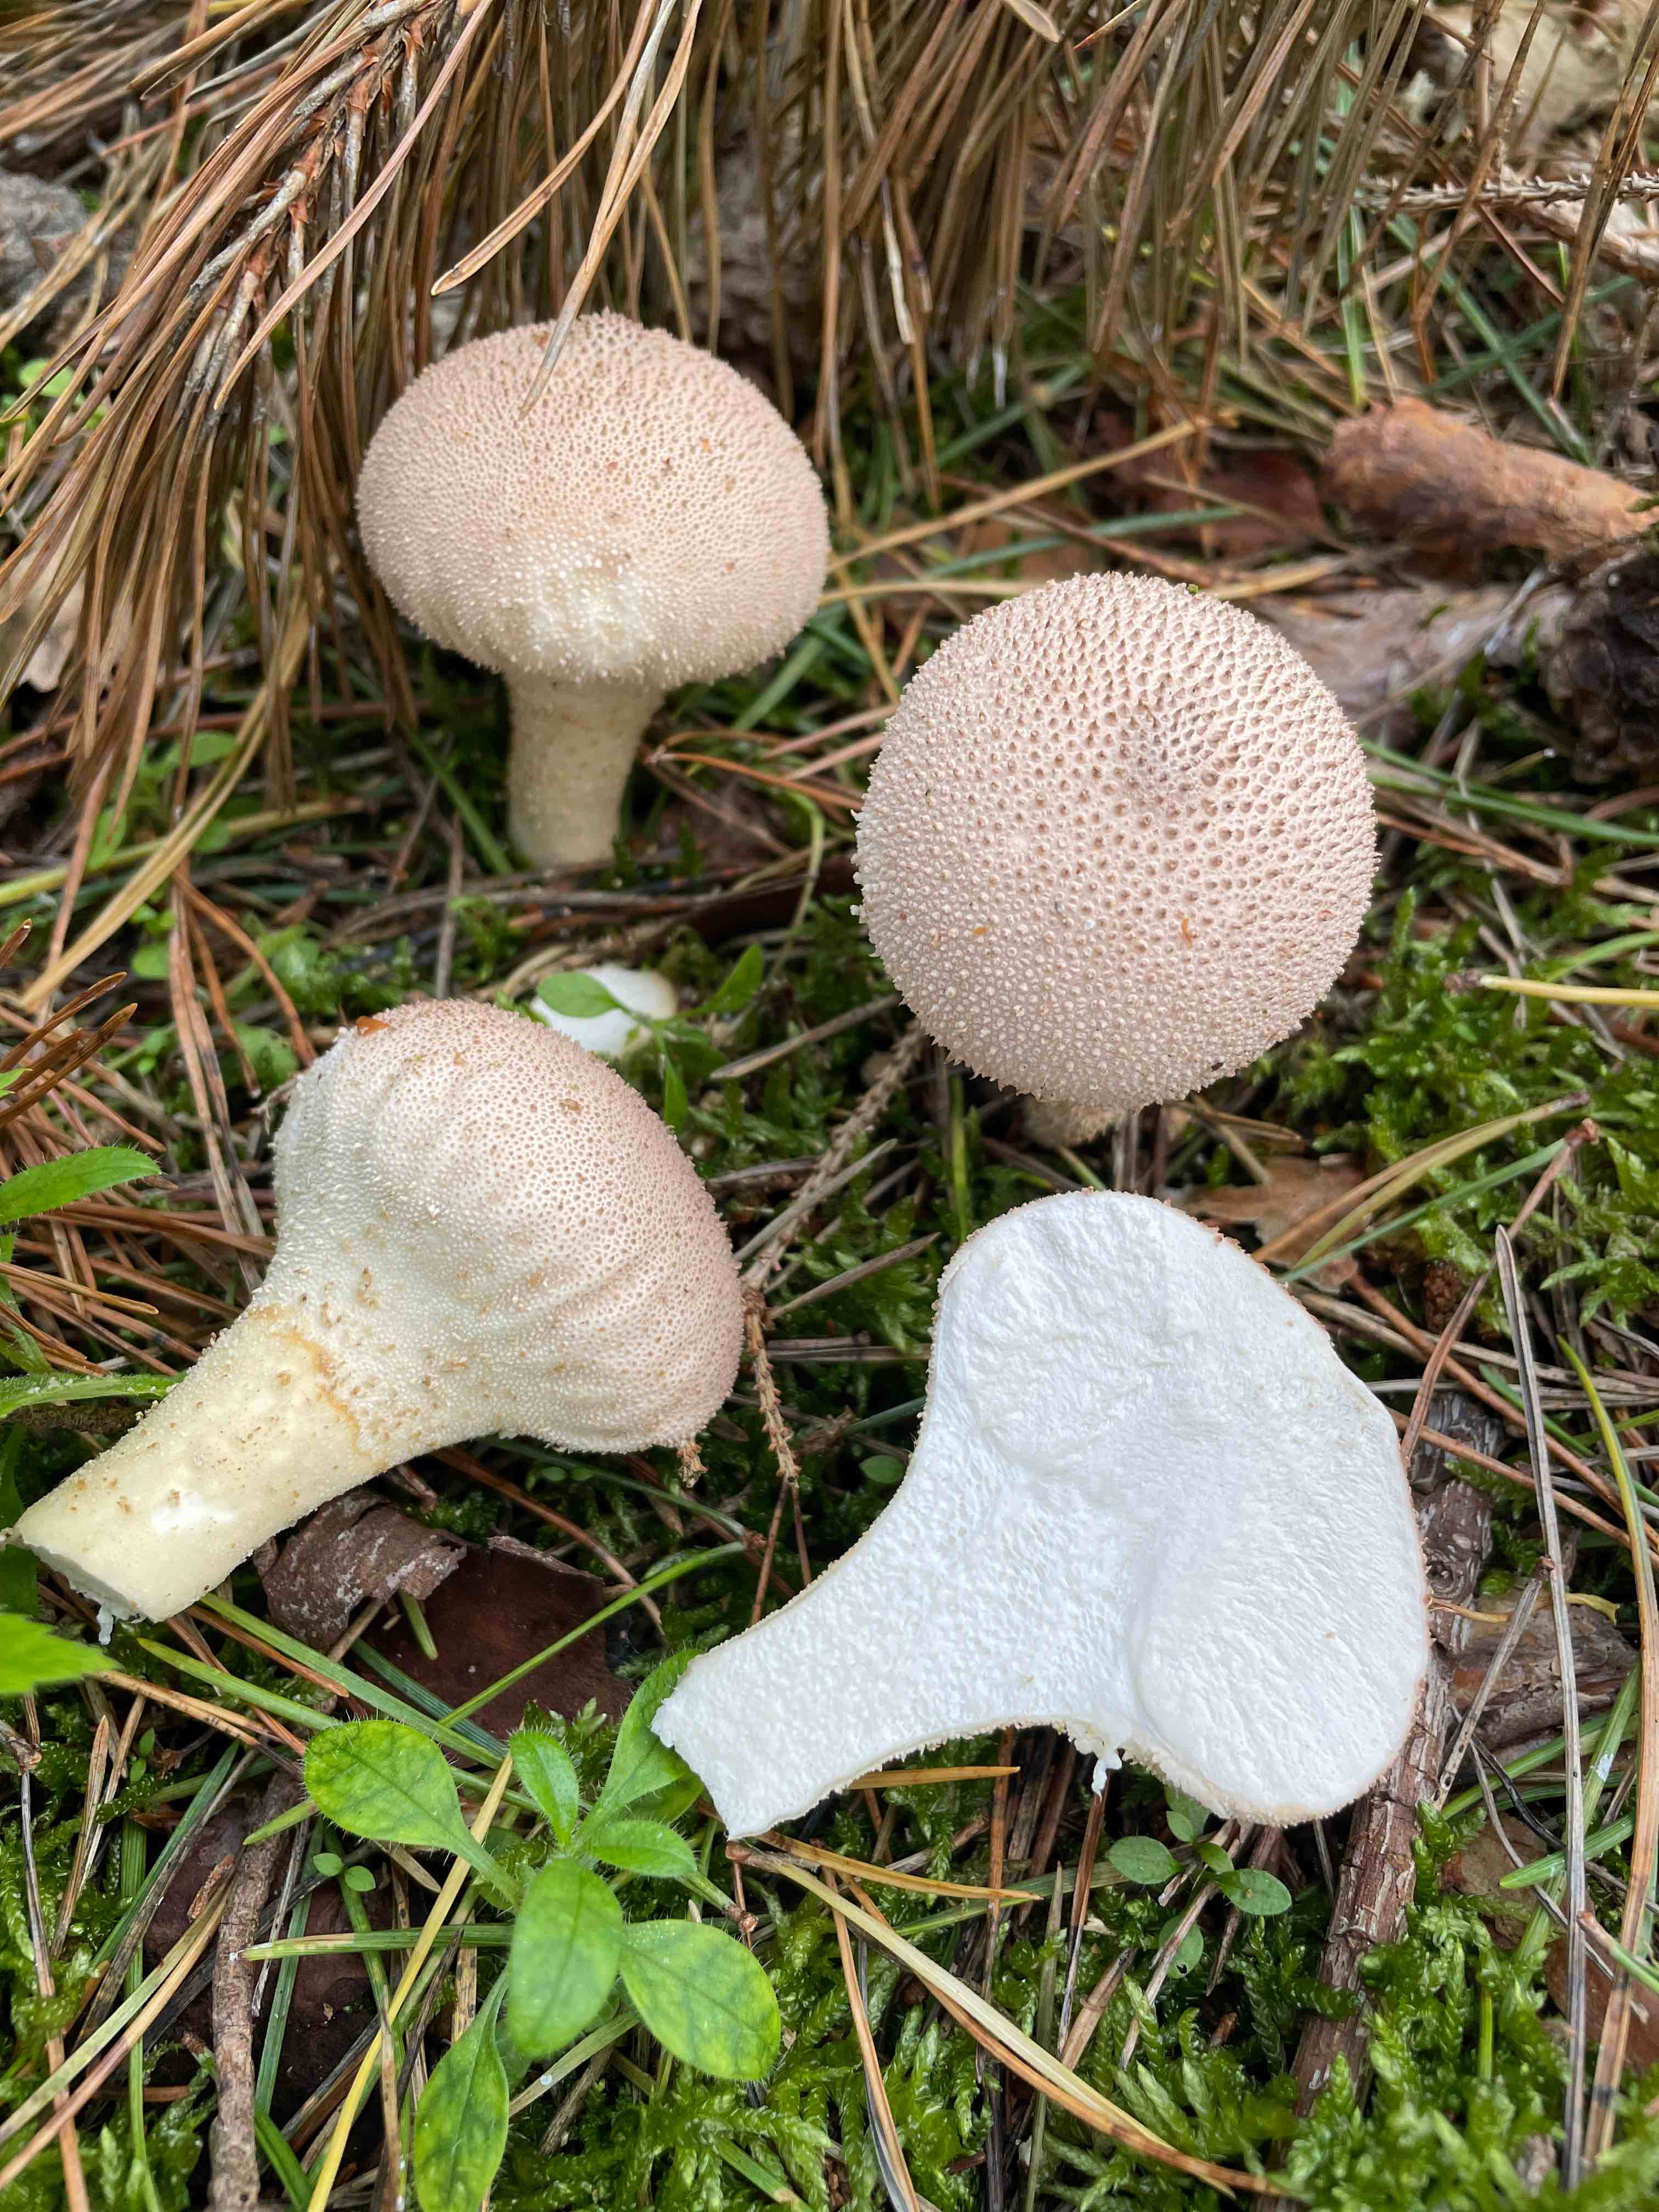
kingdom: Fungi
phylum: Basidiomycota
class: Agaricomycetes
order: Agaricales
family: Lycoperdaceae
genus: Lycoperdon
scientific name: Lycoperdon perlatum
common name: krystal-støvbold
